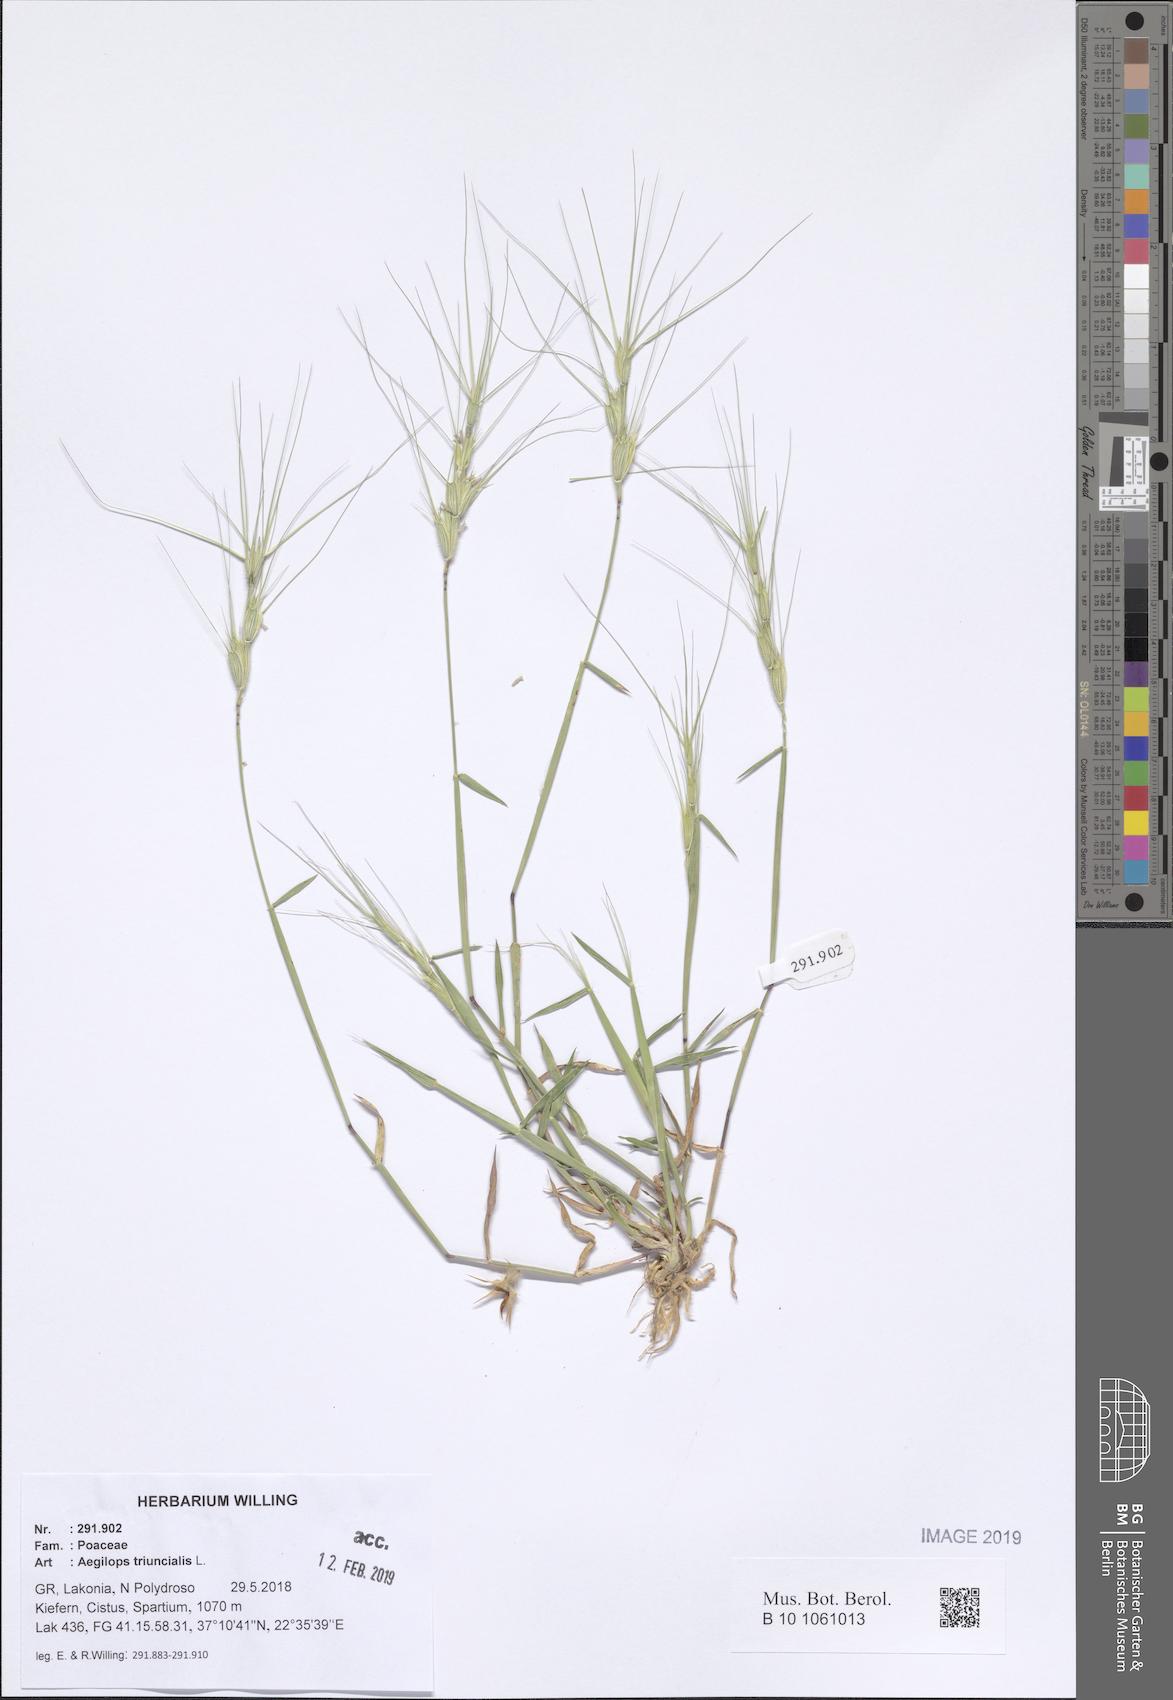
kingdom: Plantae
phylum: Tracheophyta
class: Liliopsida
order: Poales
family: Poaceae
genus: Aegilops
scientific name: Aegilops triuncialis
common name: Barb goat grass
